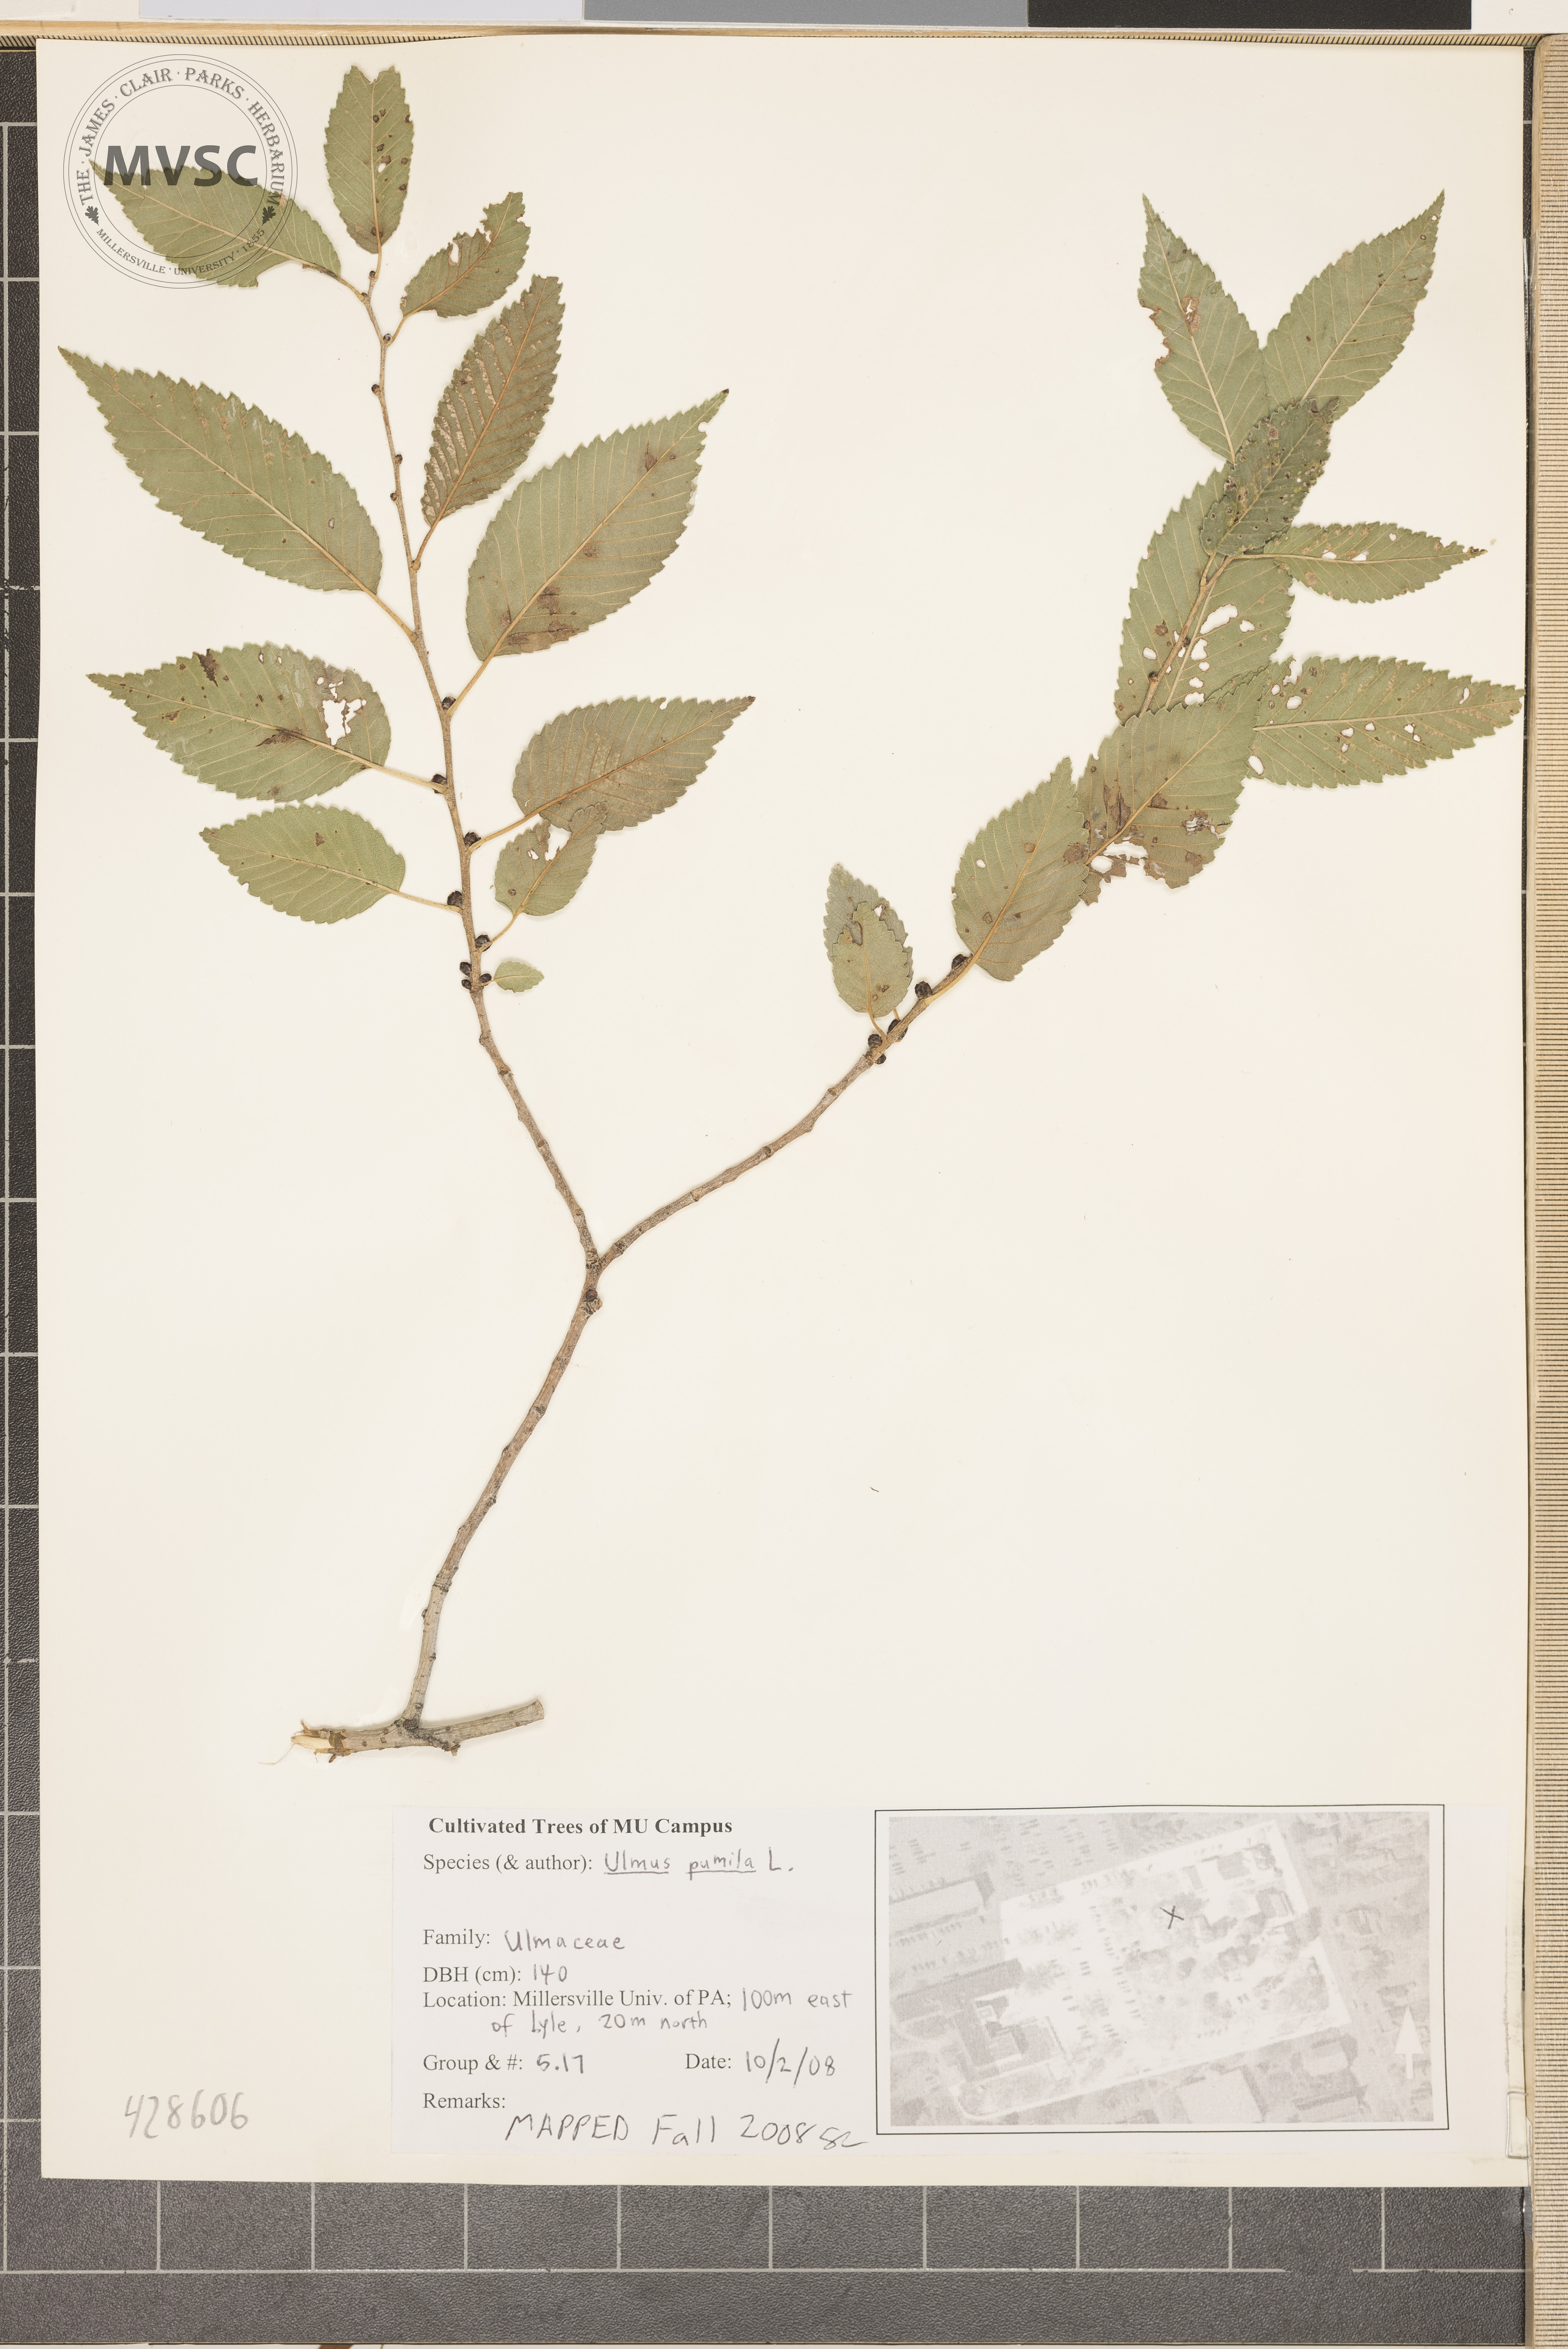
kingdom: Plantae
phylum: Tracheophyta
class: Magnoliopsida
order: Rosales
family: Ulmaceae
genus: Ulmus
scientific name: Ulmus pumila
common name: Siberian Elm
